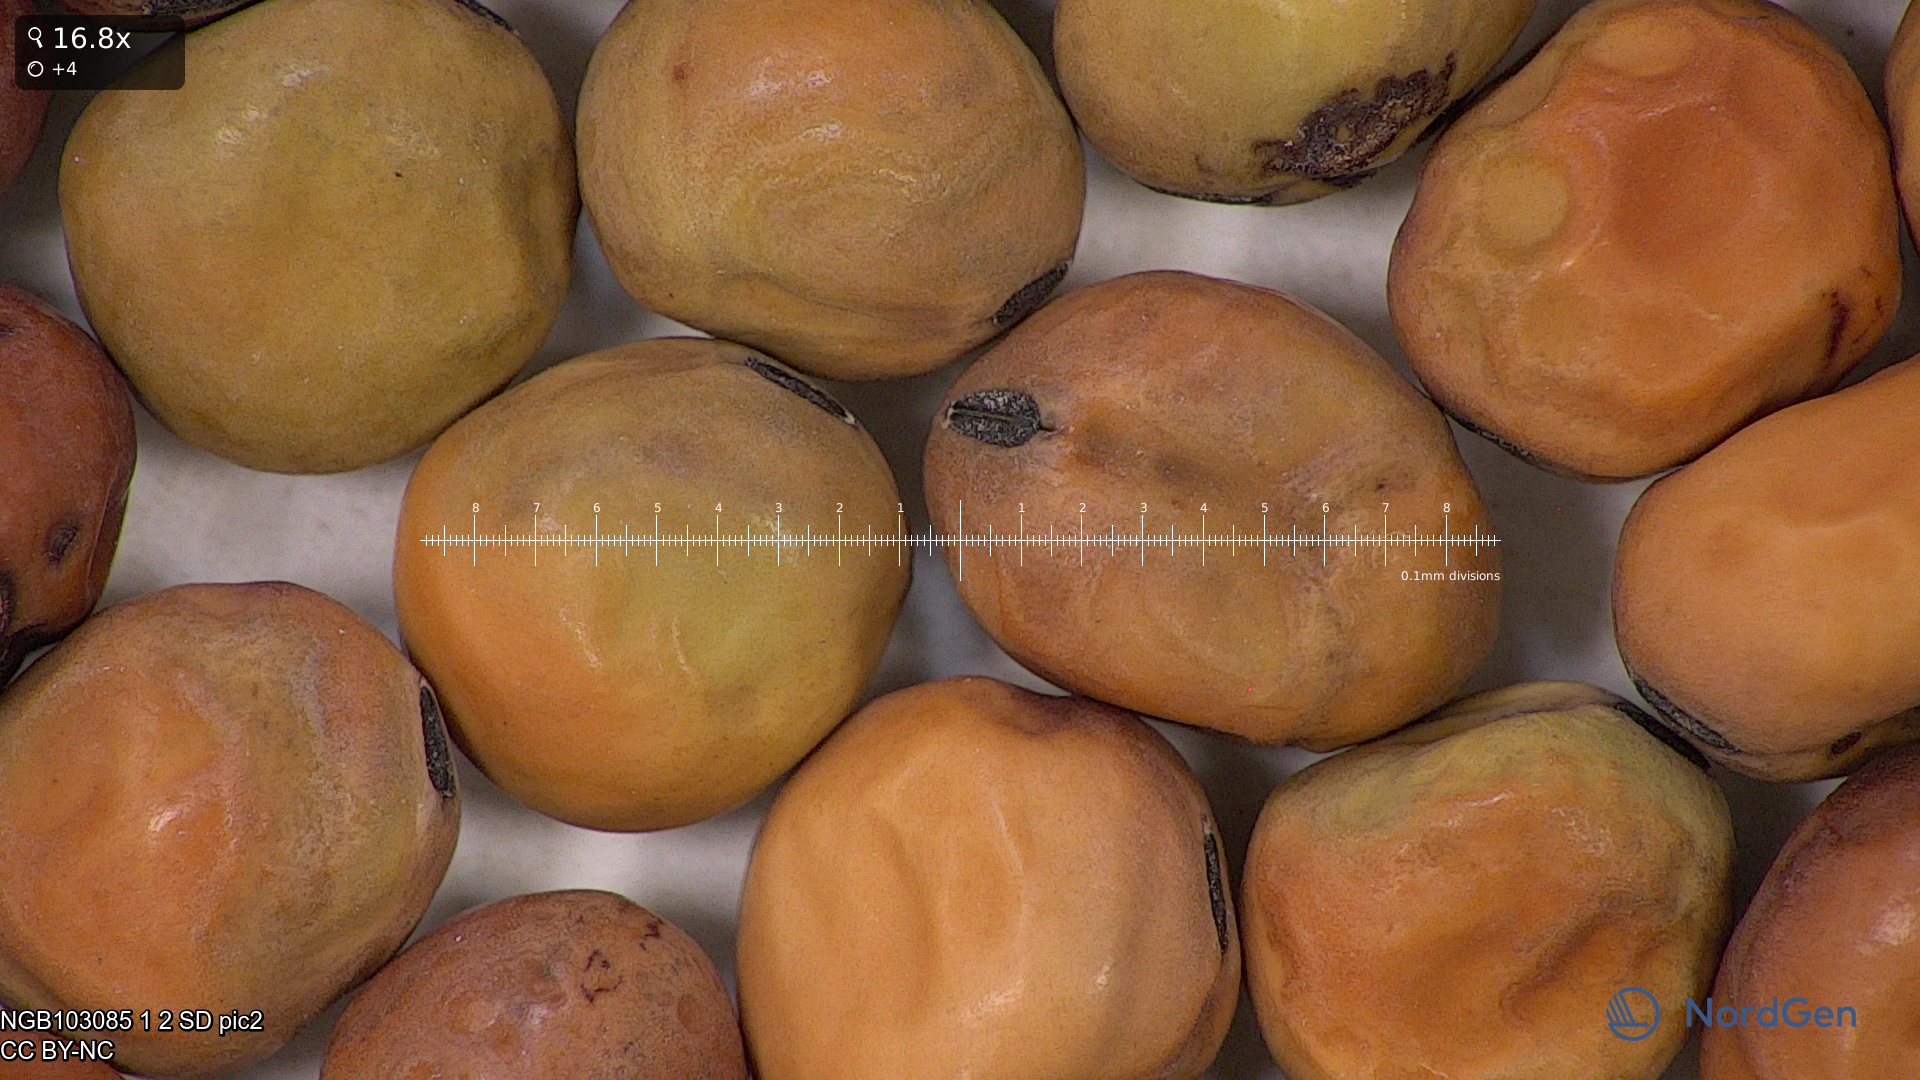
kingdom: Plantae
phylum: Tracheophyta
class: Magnoliopsida
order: Fabales
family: Fabaceae
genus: Lathyrus
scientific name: Lathyrus oleraceus
